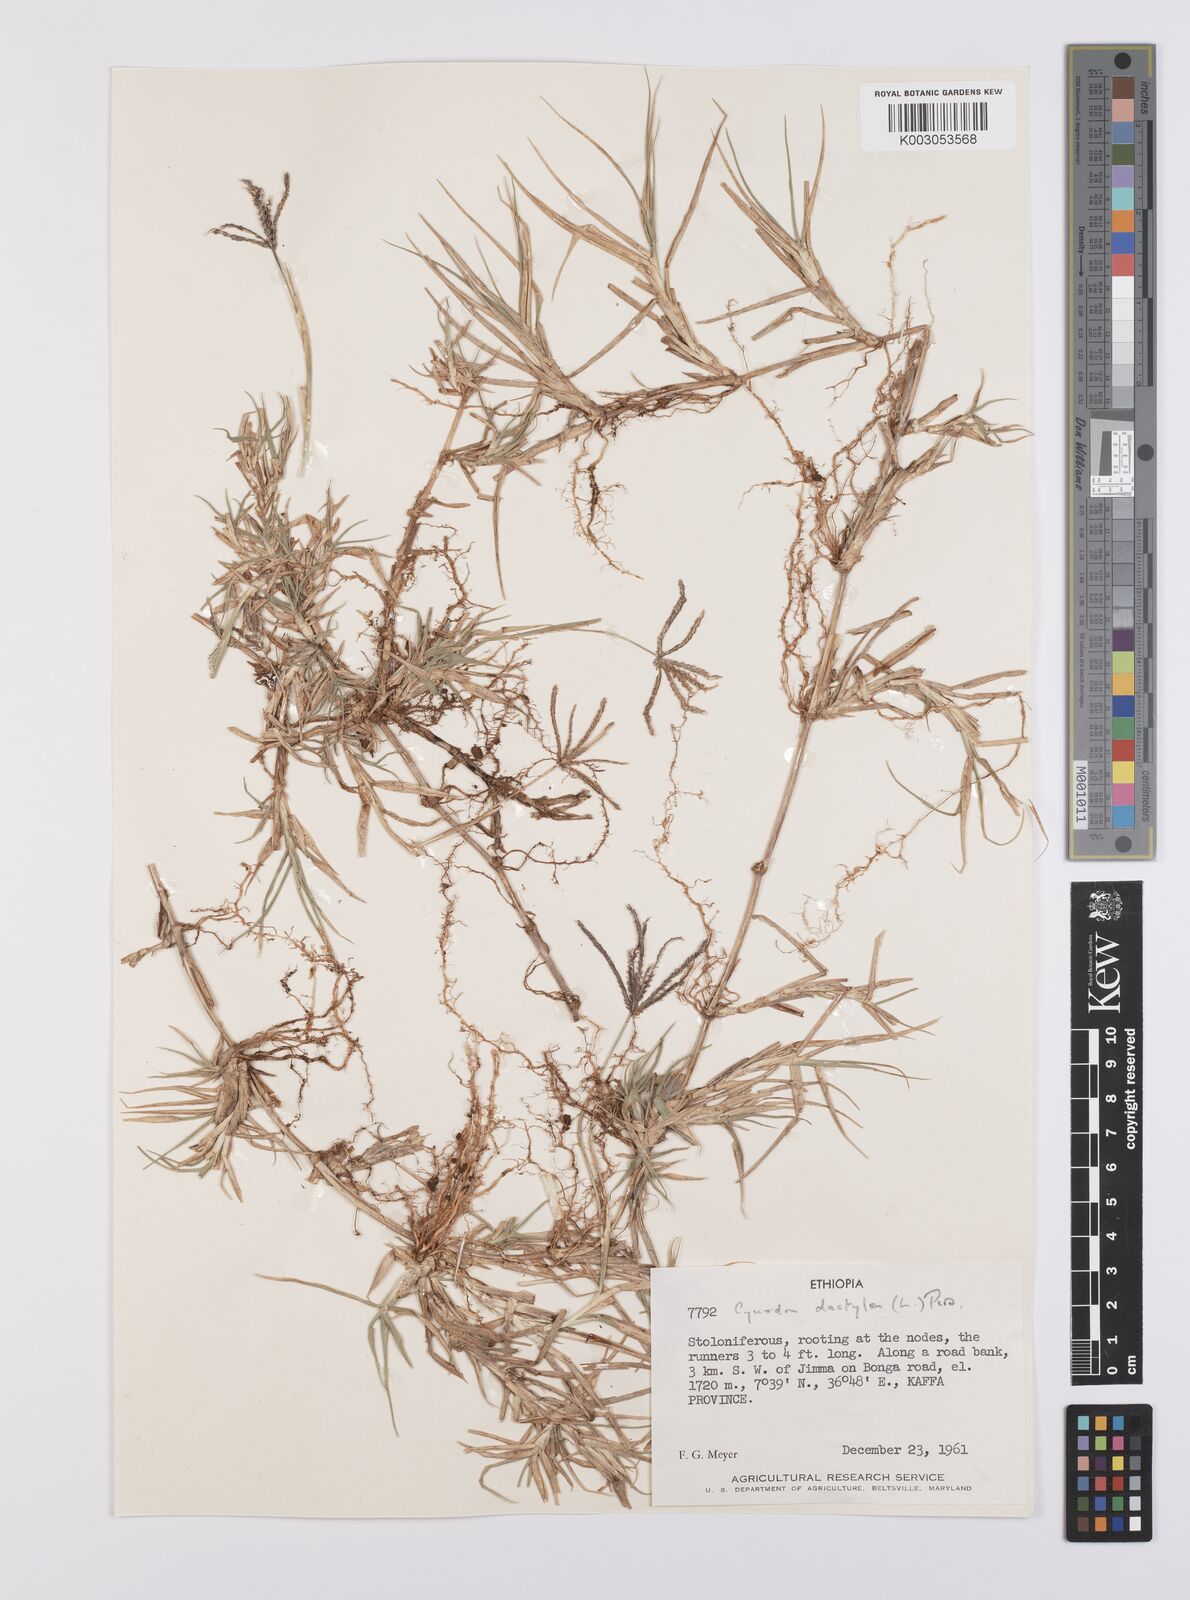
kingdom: Plantae
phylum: Tracheophyta
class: Liliopsida
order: Poales
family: Poaceae
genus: Cynodon
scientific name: Cynodon dactylon
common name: Bermuda grass
